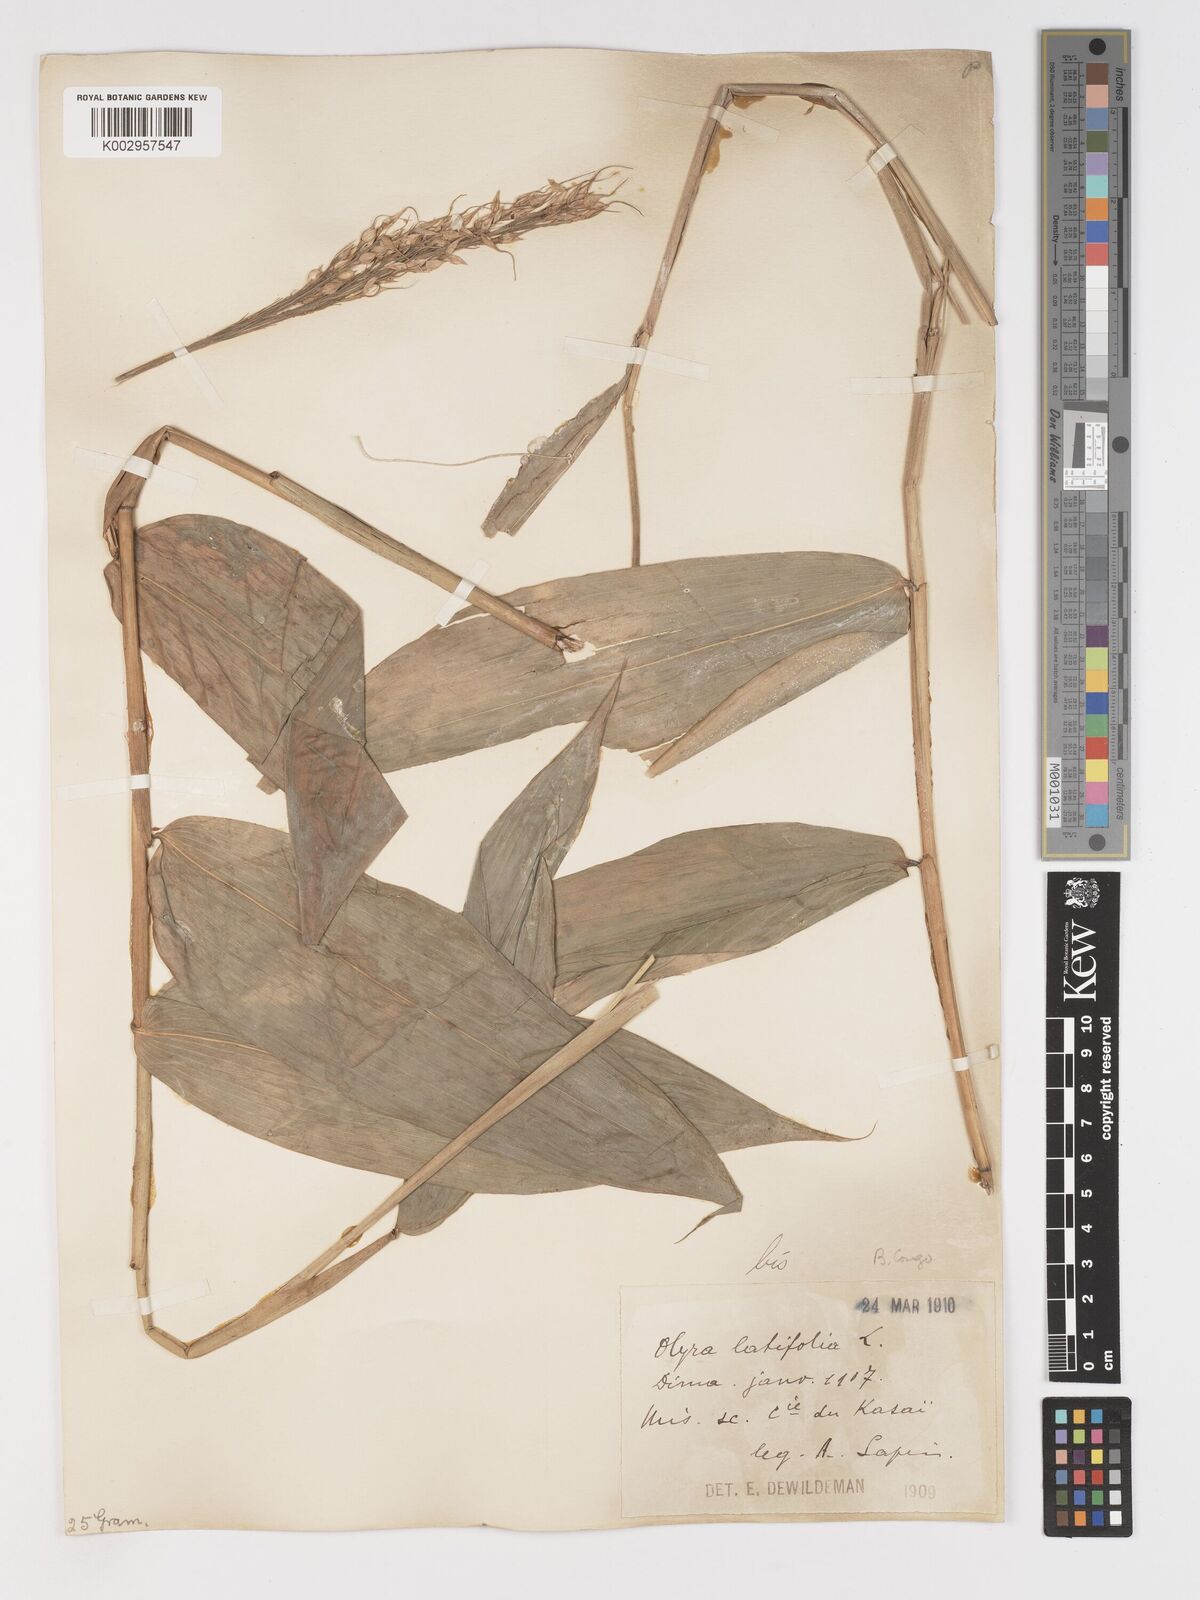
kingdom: Plantae
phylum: Tracheophyta
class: Liliopsida
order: Poales
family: Poaceae
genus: Olyra
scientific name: Olyra latifolia
